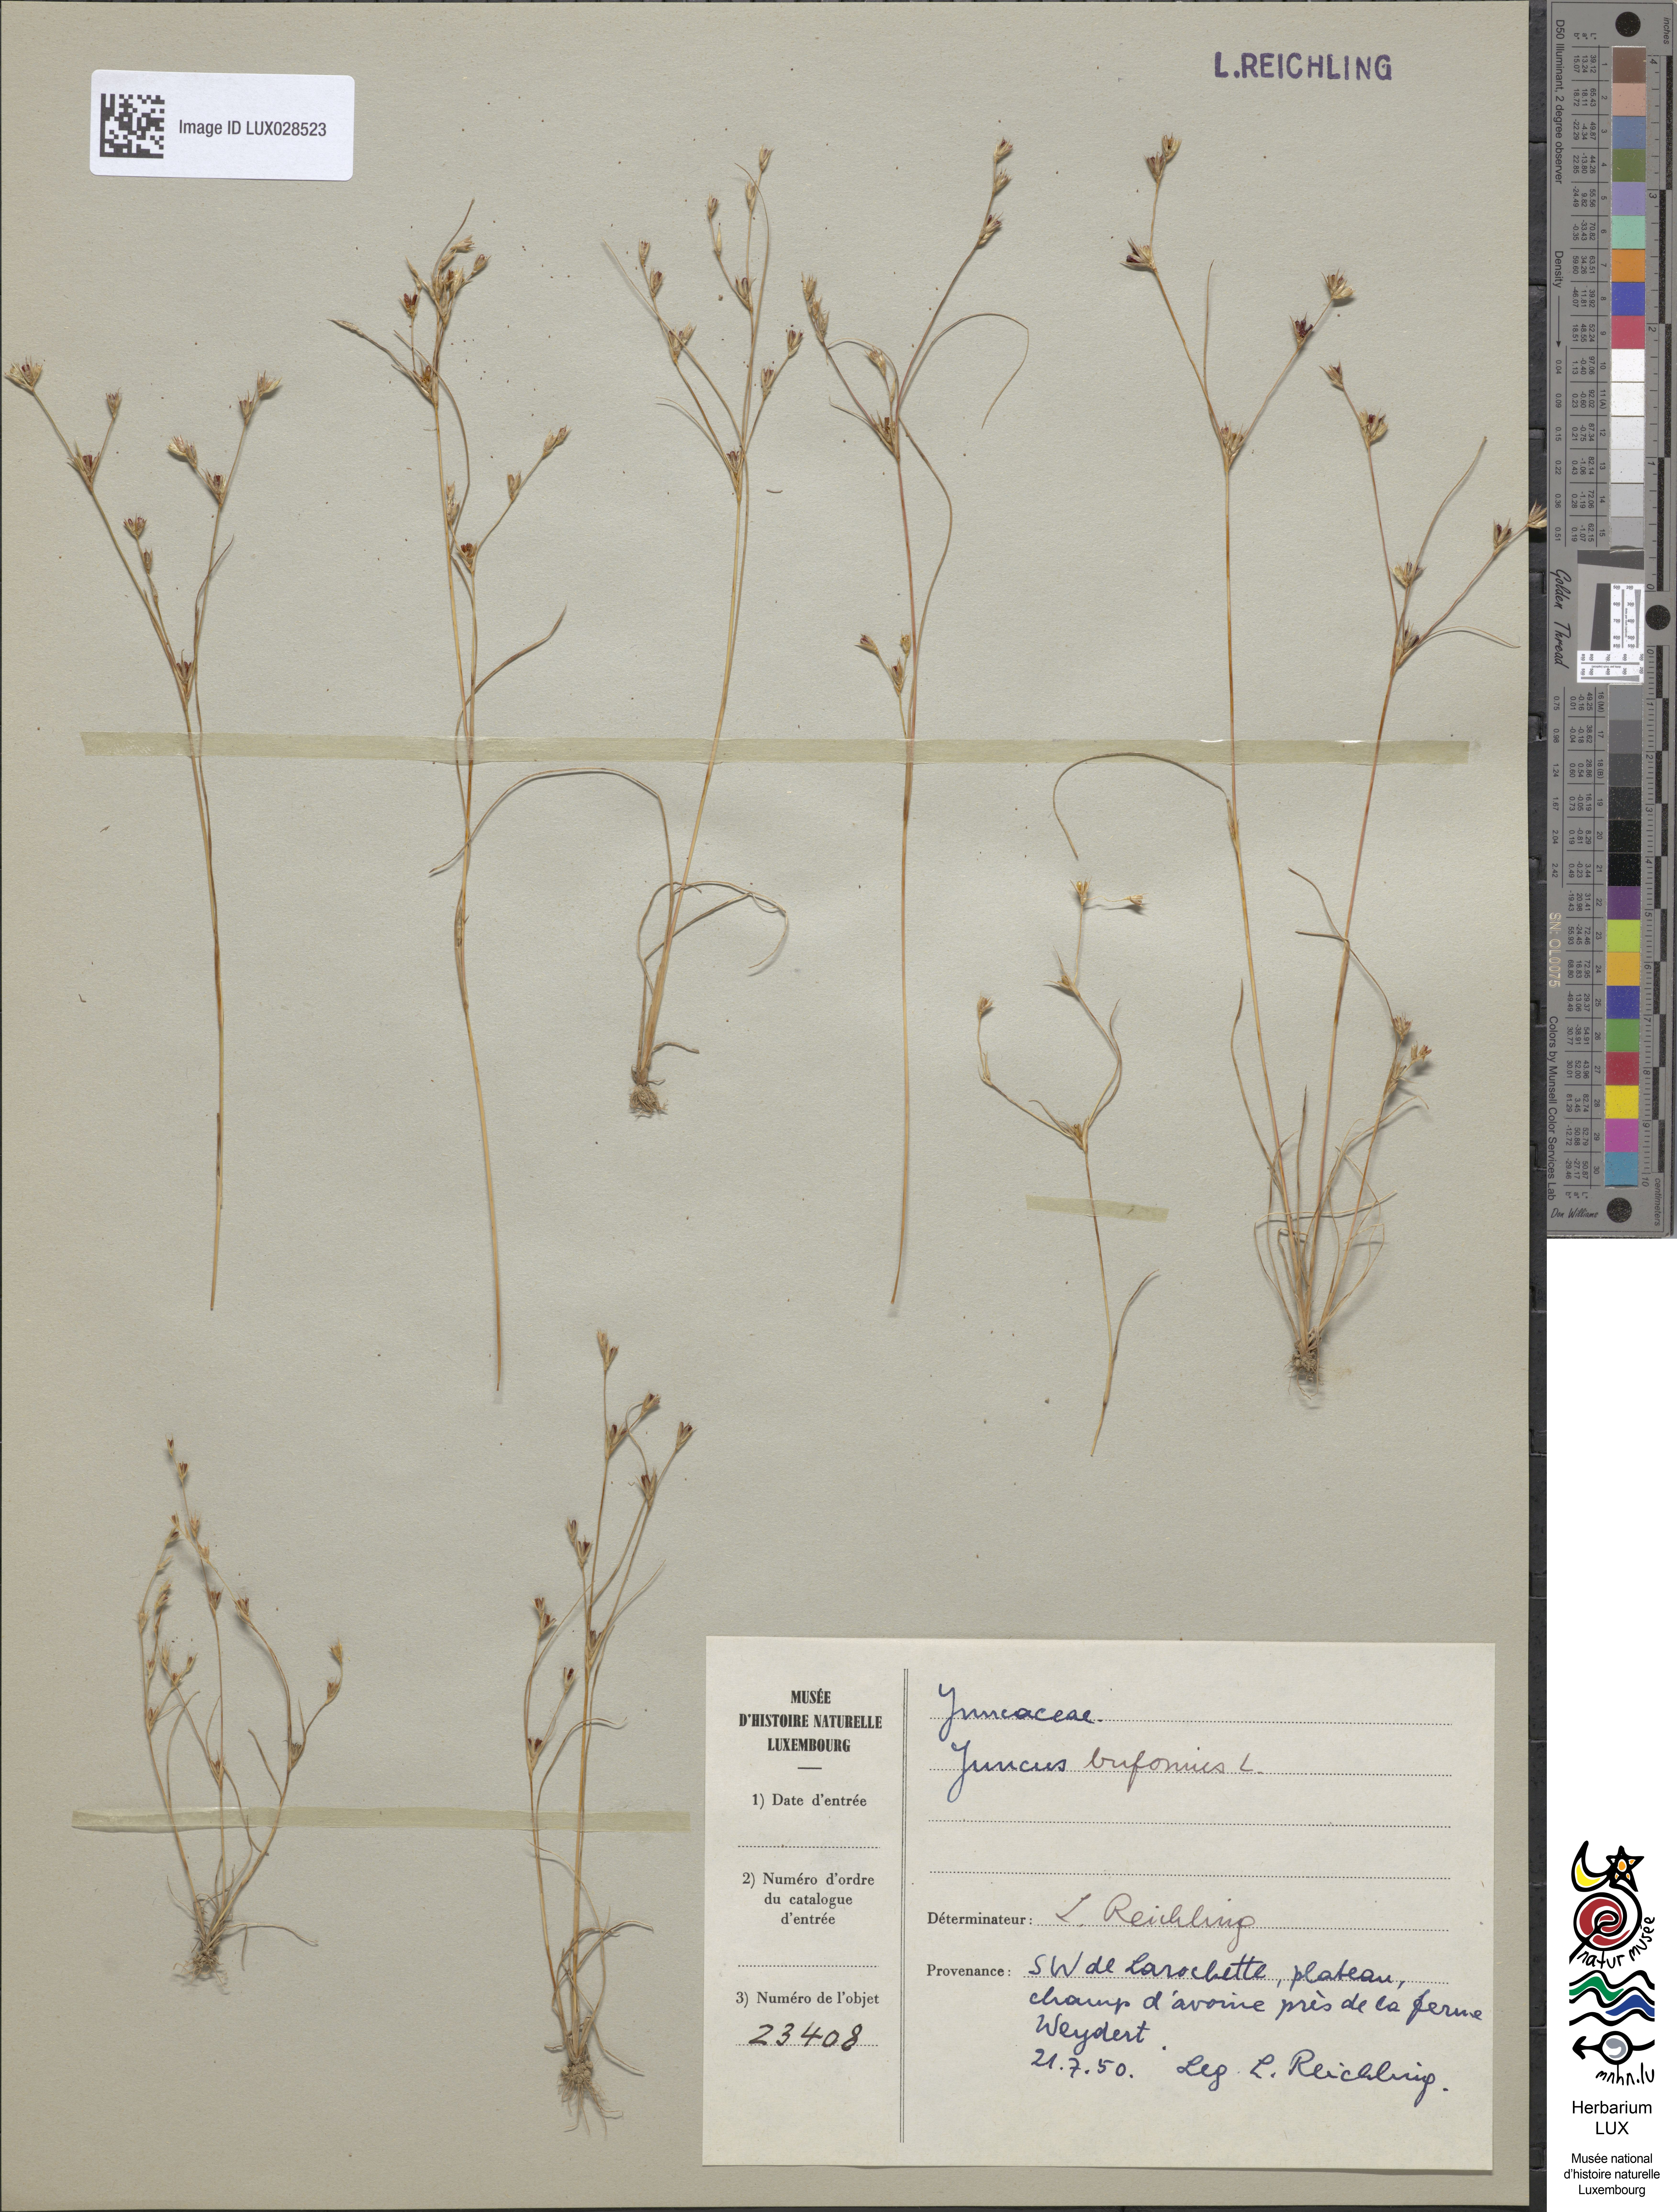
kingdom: Plantae
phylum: Tracheophyta
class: Liliopsida
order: Poales
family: Juncaceae
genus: Juncus
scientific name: Juncus bufonius
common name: Toad rush
